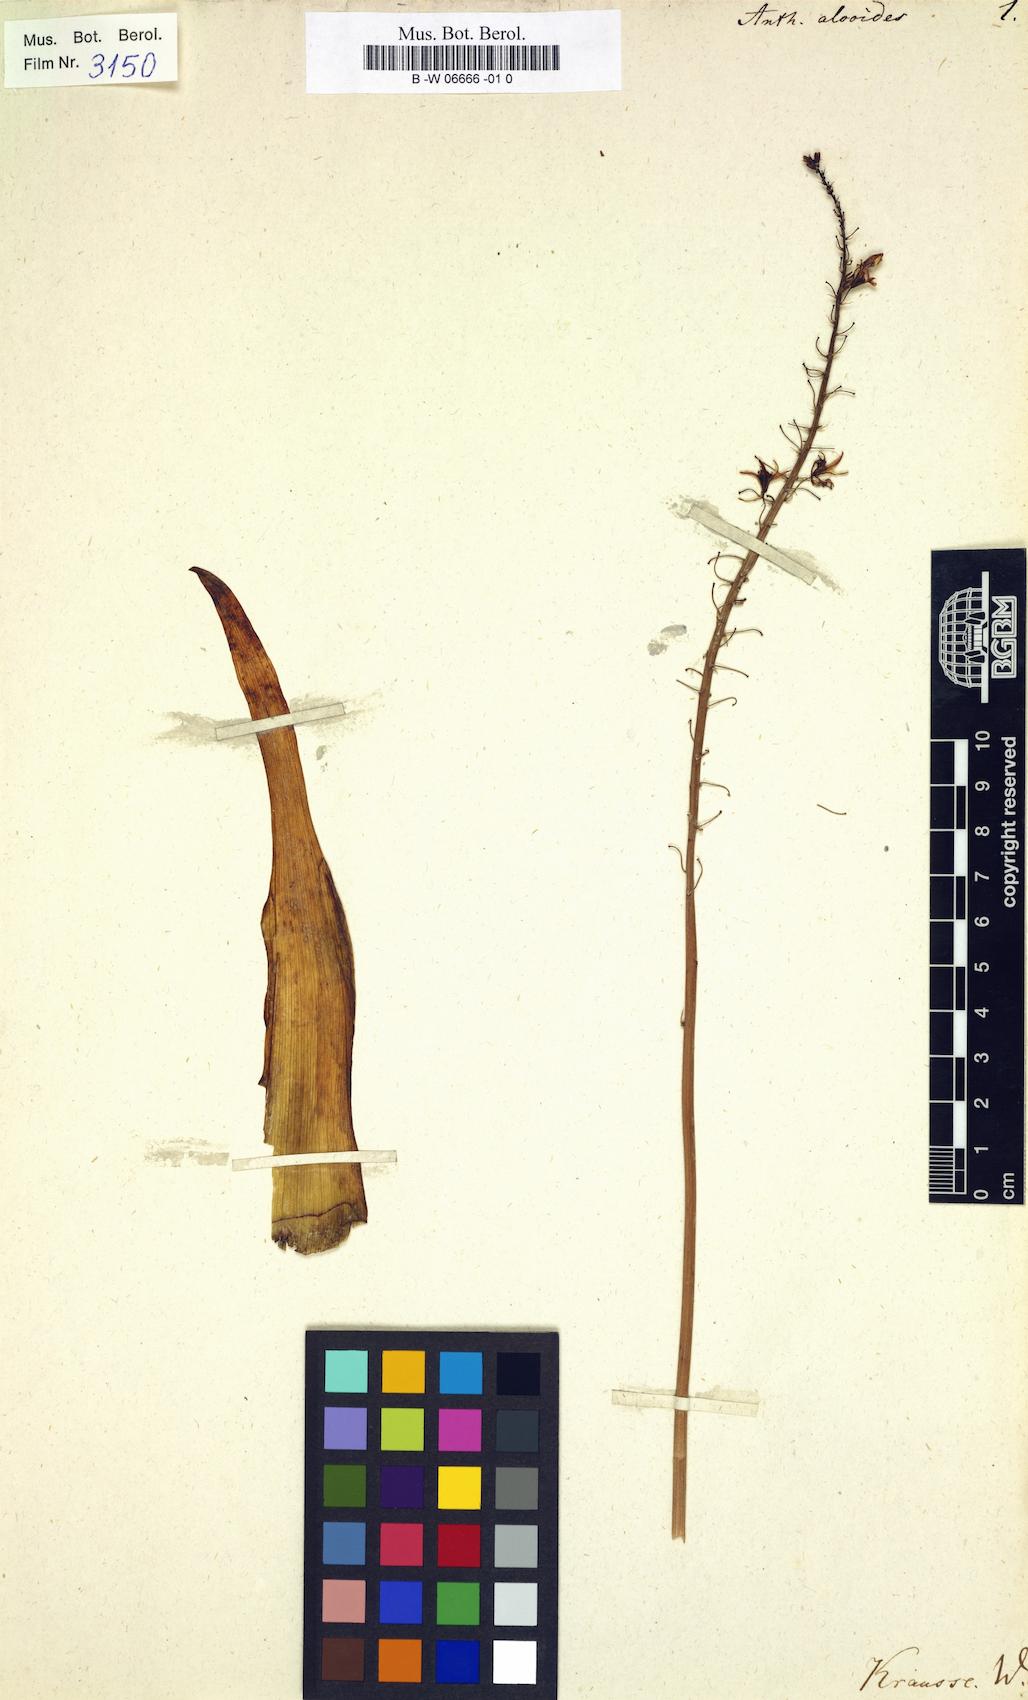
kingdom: Plantae
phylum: Tracheophyta
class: Liliopsida
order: Asparagales
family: Asphodelaceae
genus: Bulbine
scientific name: Bulbine
